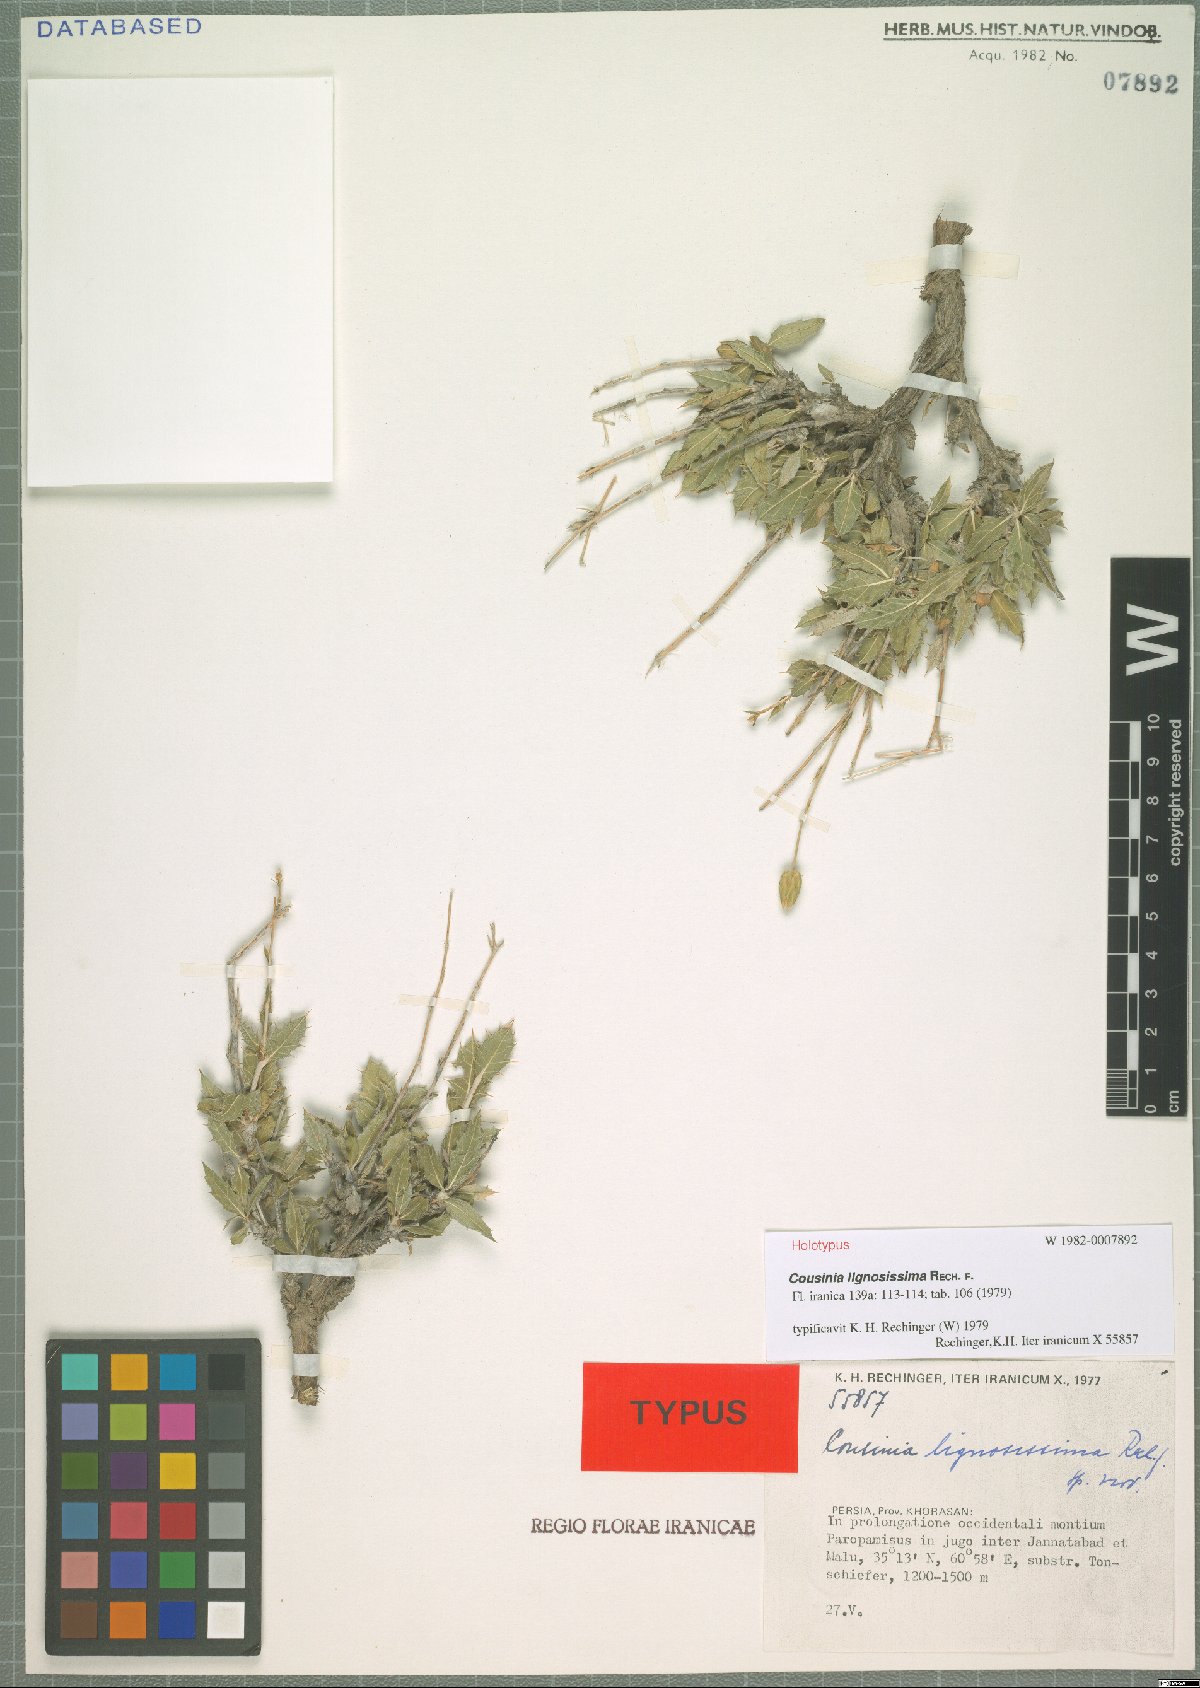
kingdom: Plantae
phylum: Tracheophyta
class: Magnoliopsida
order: Asterales
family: Asteraceae
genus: Cousinia
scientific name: Cousinia lignosissima
